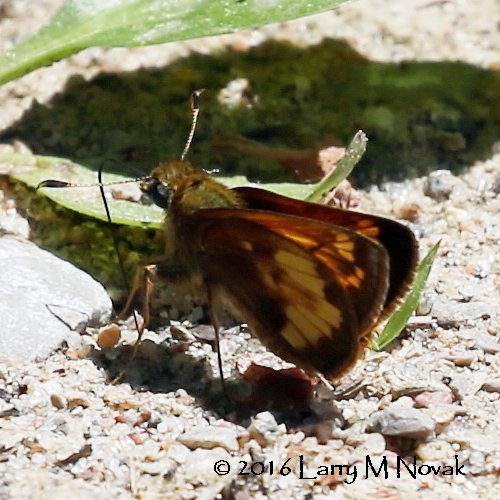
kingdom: Animalia
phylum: Arthropoda
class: Insecta
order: Lepidoptera
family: Hesperiidae
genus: Lon
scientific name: Lon hobomok
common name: Hobomok Skipper
